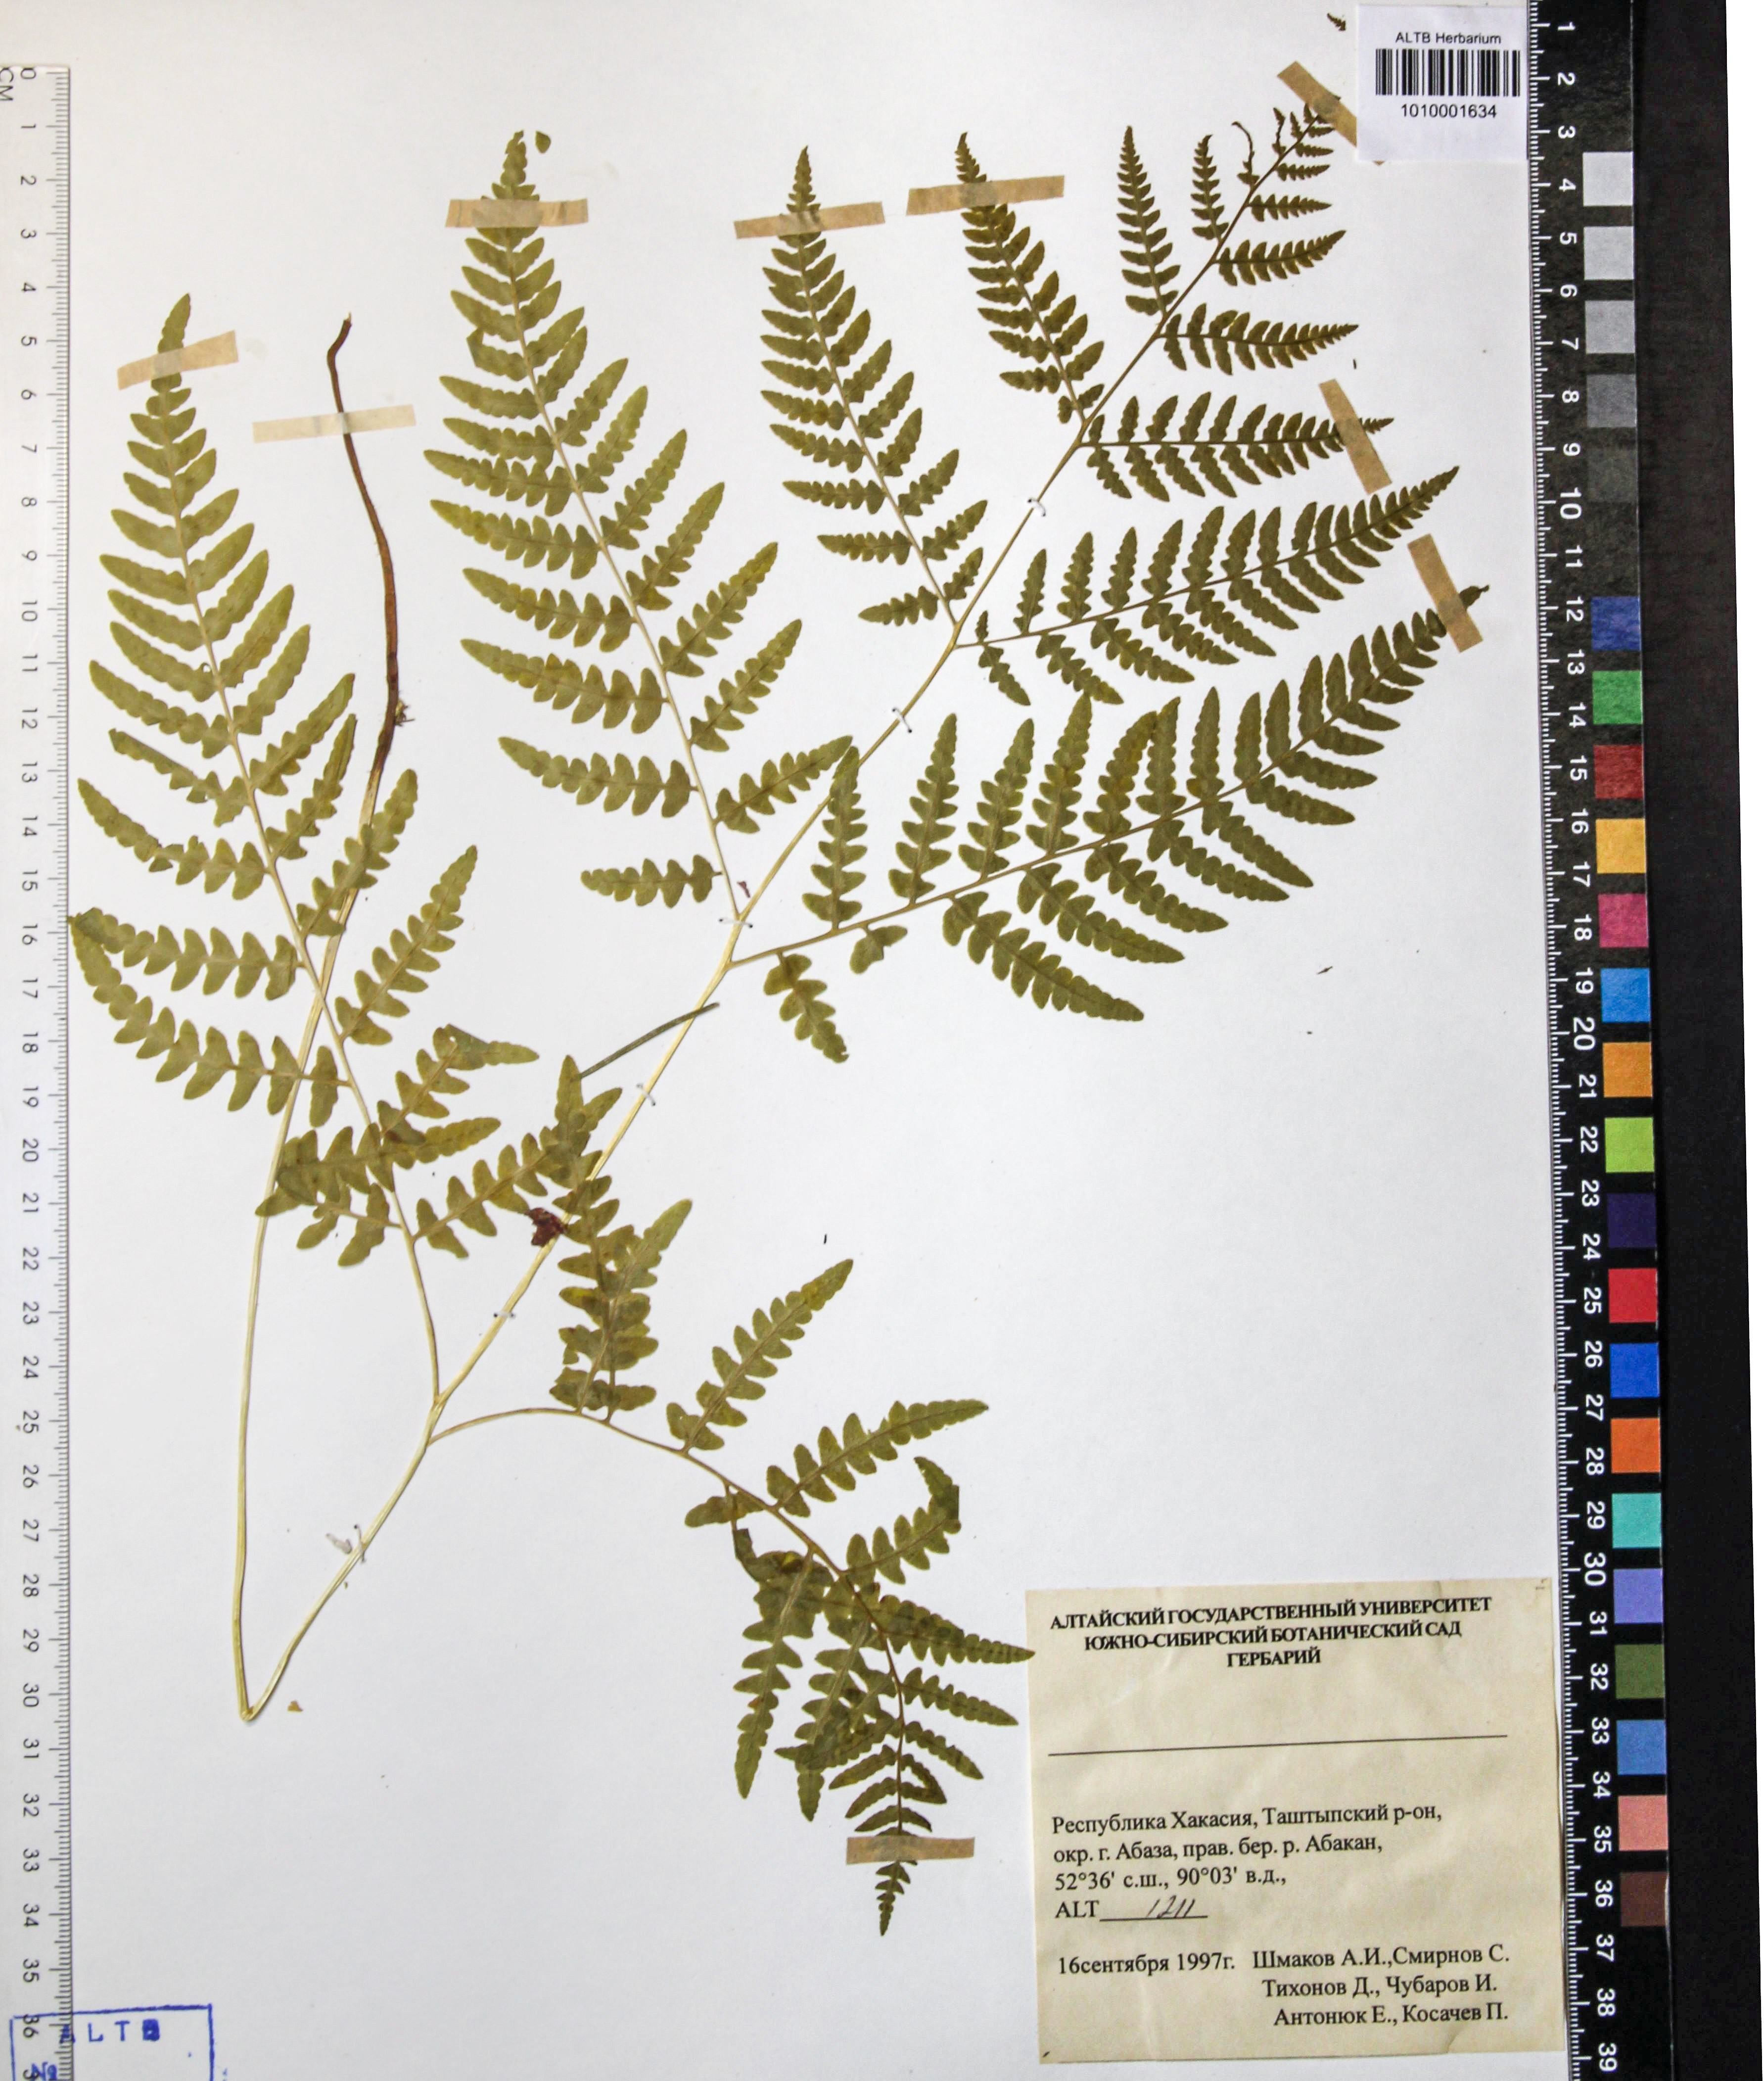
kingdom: Plantae
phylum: Tracheophyta
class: Polypodiopsida
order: Polypodiales
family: Dennstaedtiaceae
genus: Pteridium
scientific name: Pteridium aquilinum
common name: Bracken
